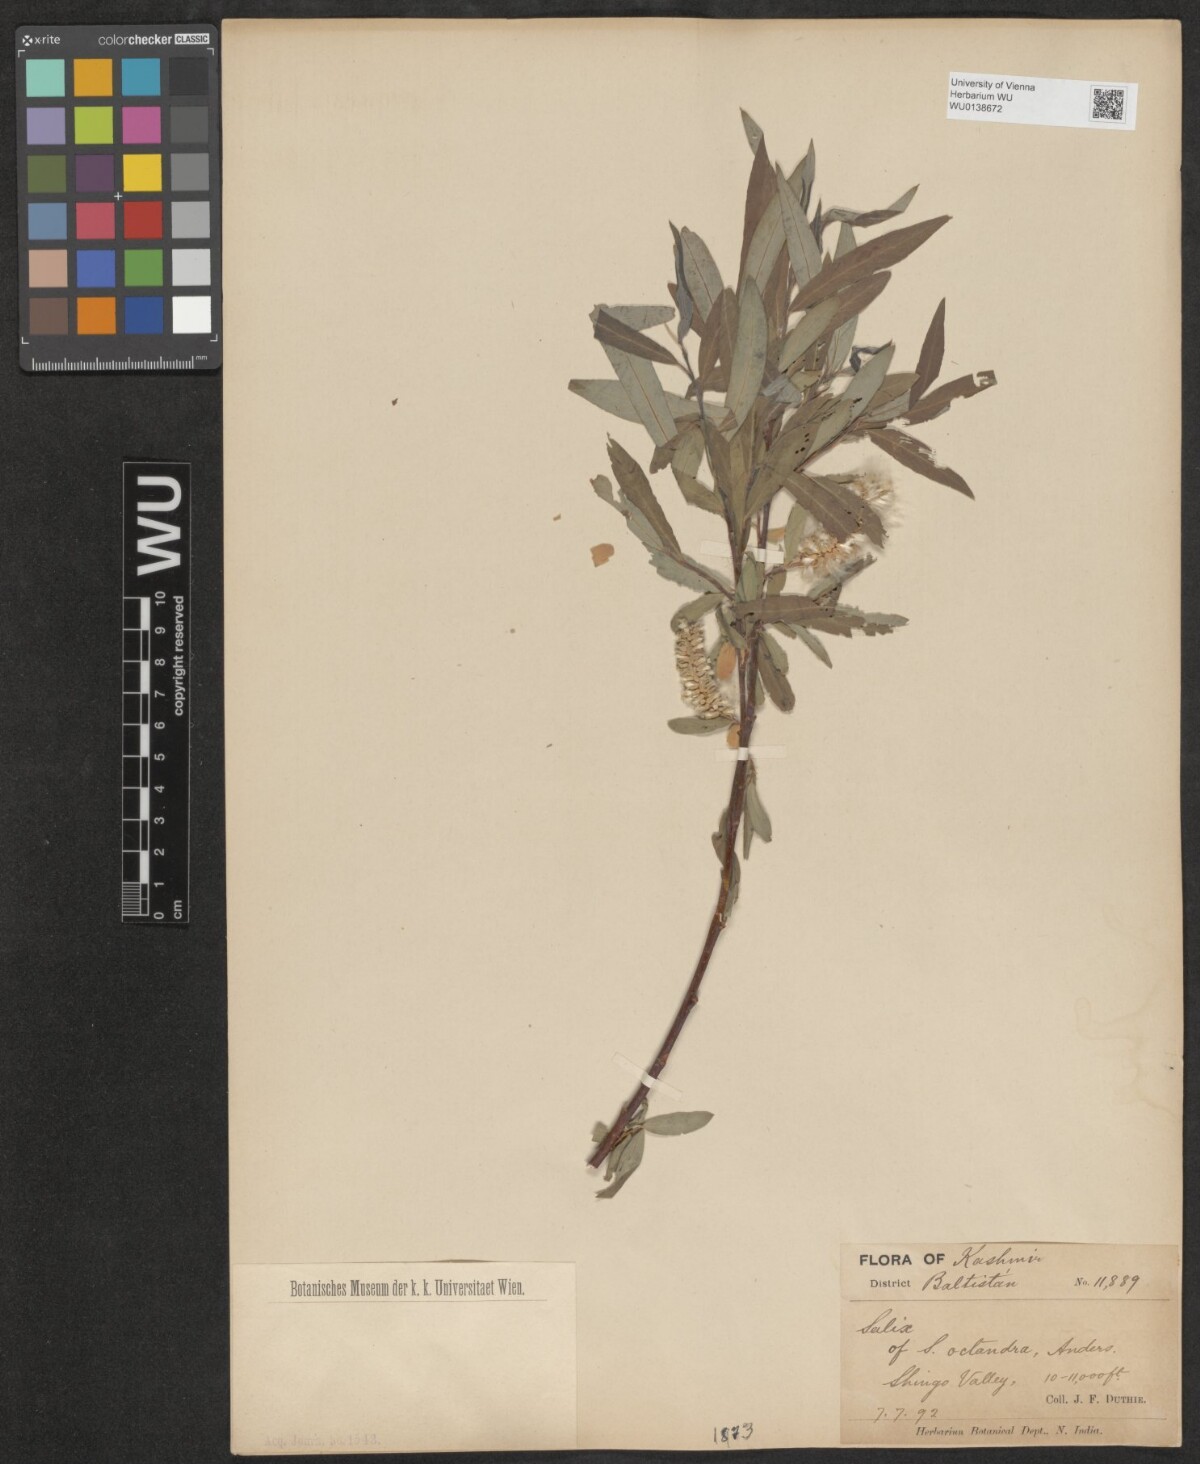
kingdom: Plantae
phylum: Tracheophyta
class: Magnoliopsida
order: Malpighiales
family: Salicaceae
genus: Salix
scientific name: Salix mucronata
